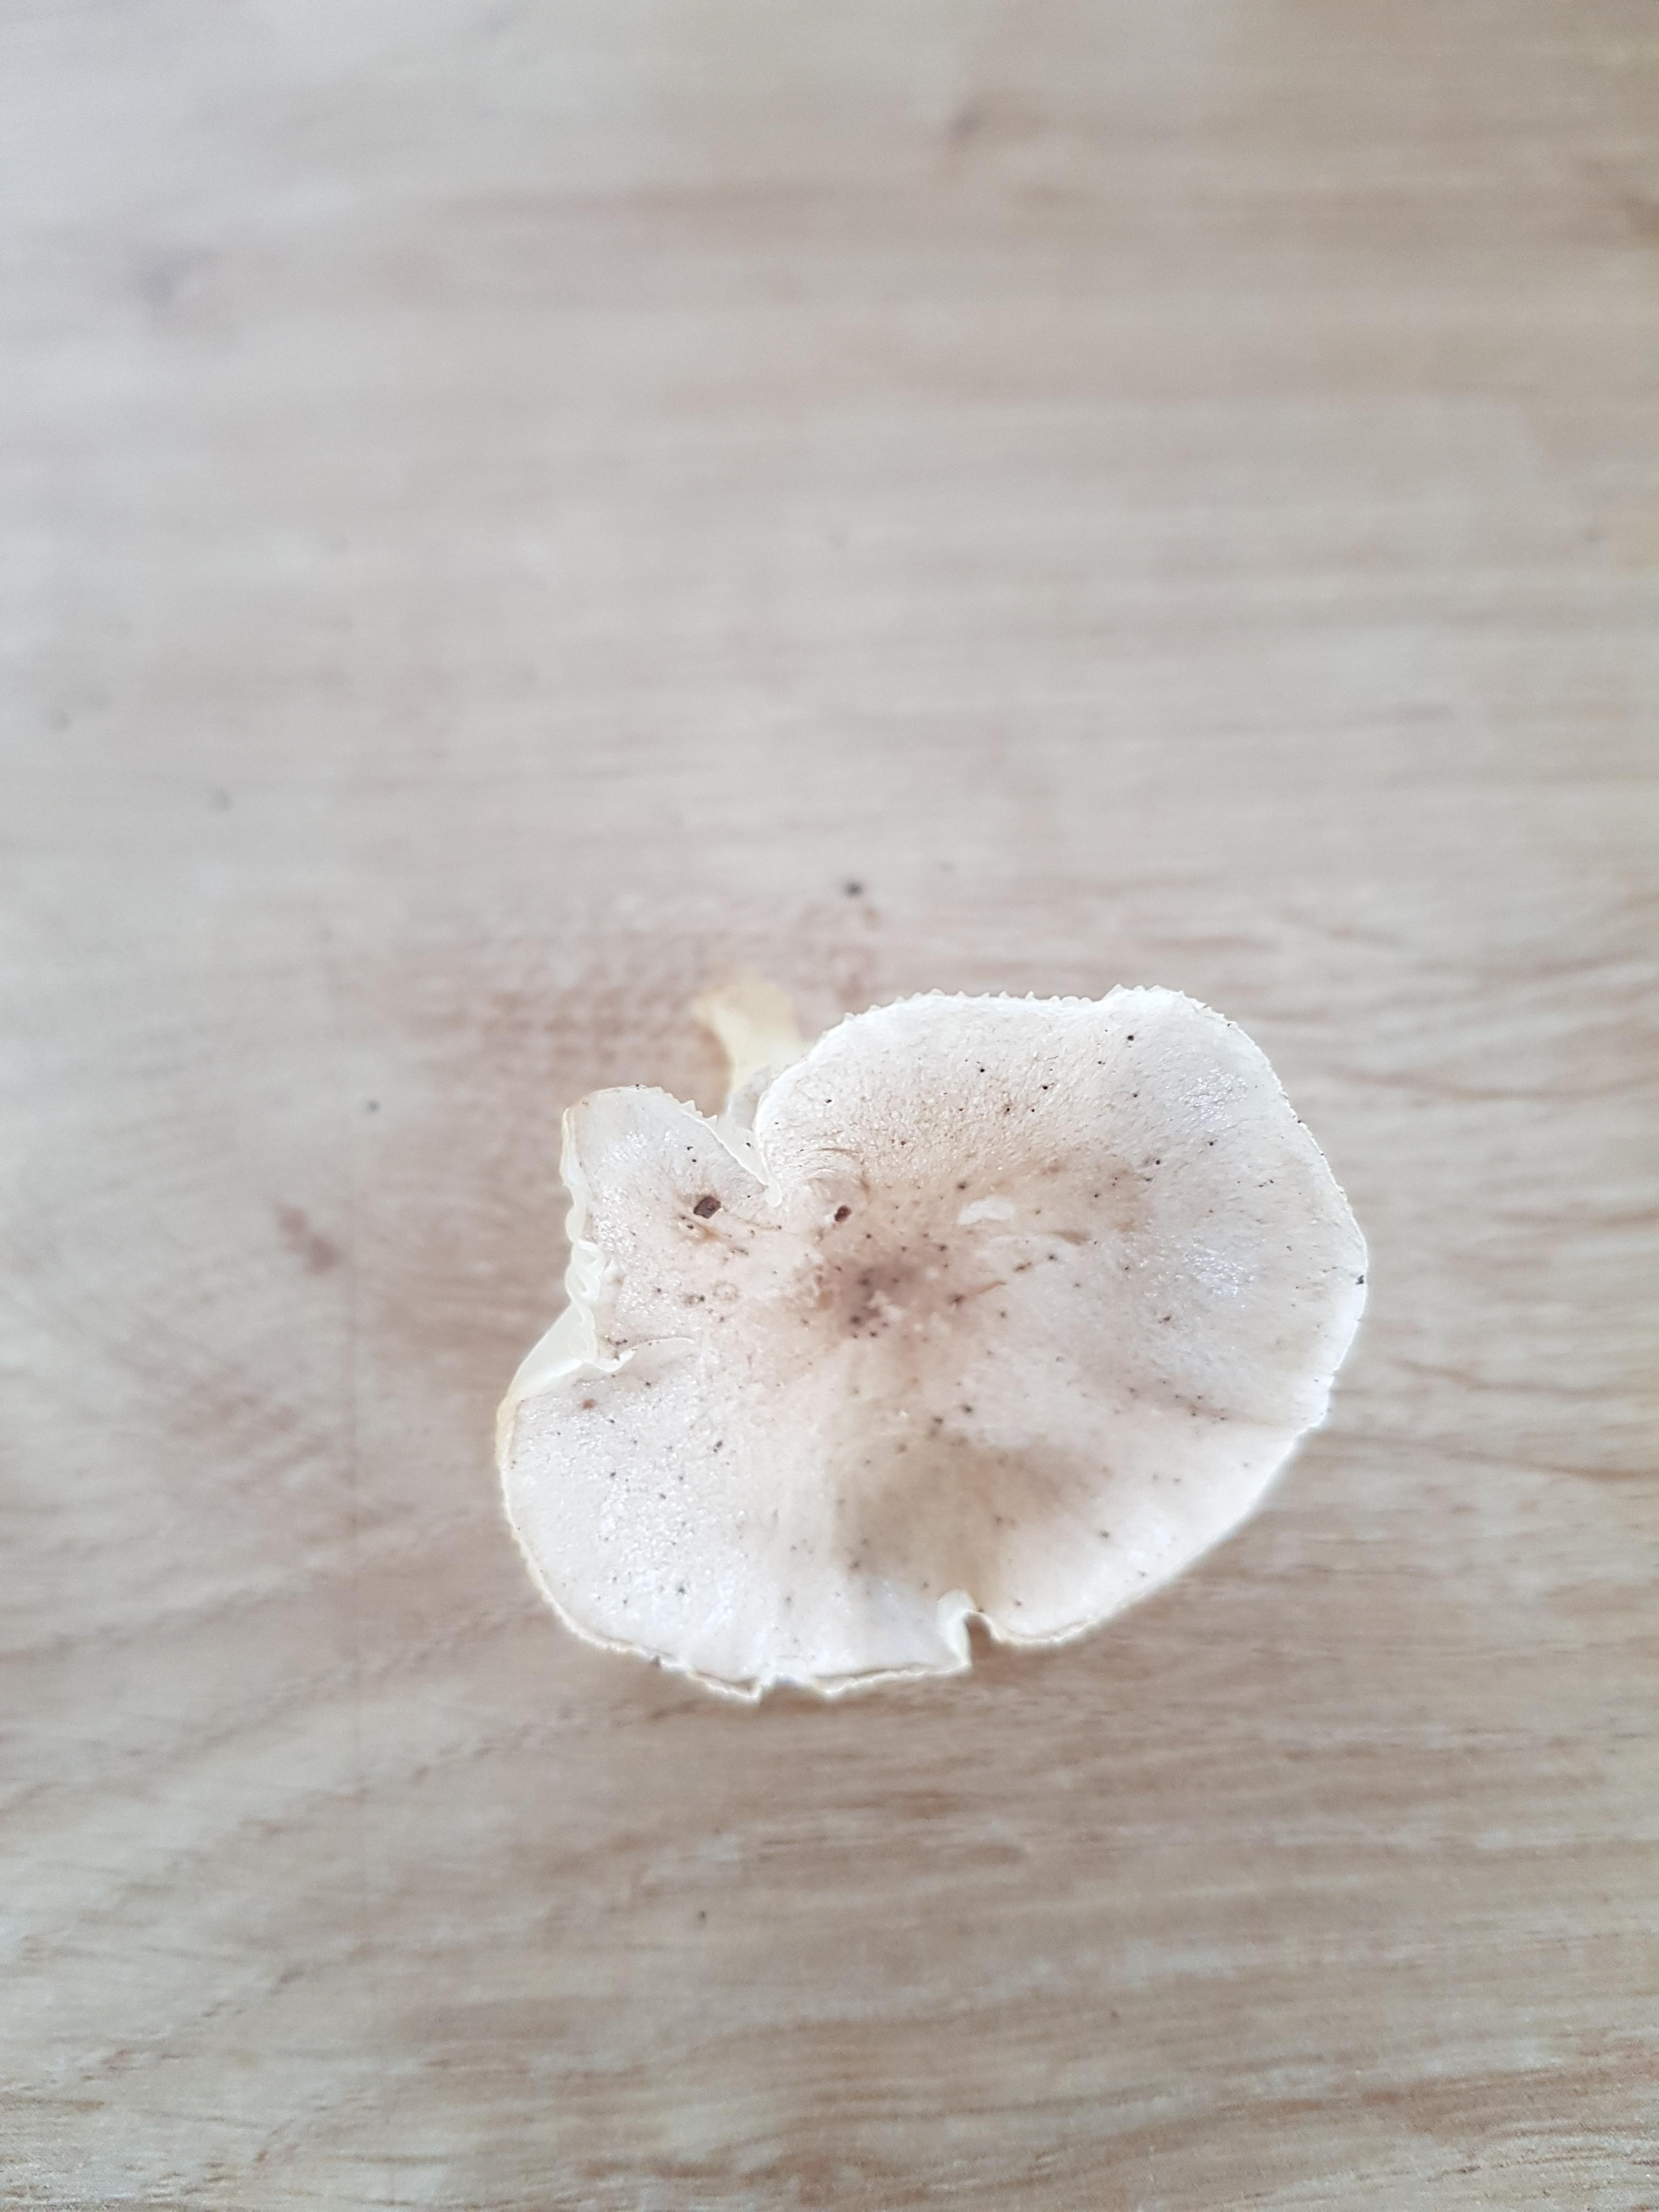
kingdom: Fungi
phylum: Basidiomycota
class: Agaricomycetes
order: Agaricales
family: Tricholomataceae
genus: Clitocybe
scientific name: Clitocybe
